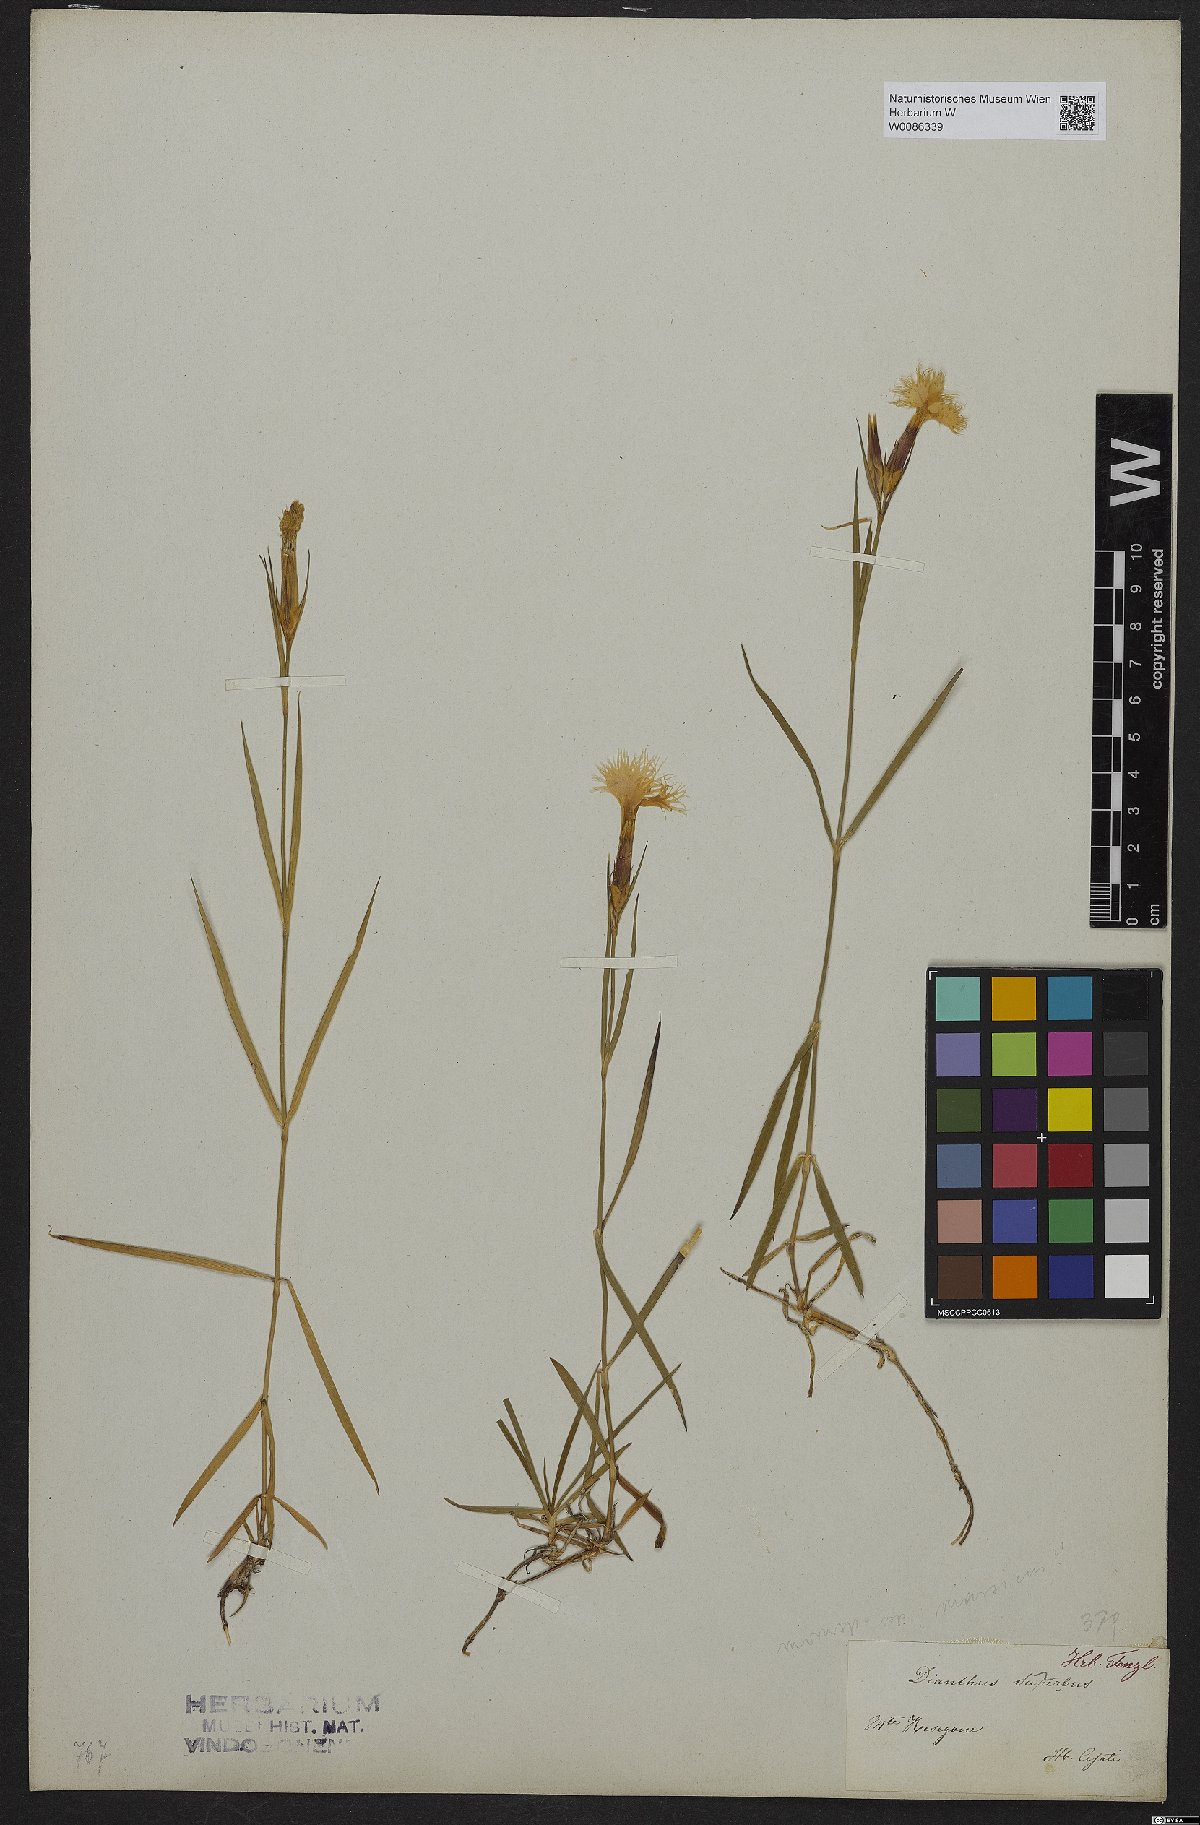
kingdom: Plantae
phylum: Tracheophyta
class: Magnoliopsida
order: Caryophyllales
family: Caryophyllaceae
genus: Dianthus
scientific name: Dianthus superbus
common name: Fringed pink
